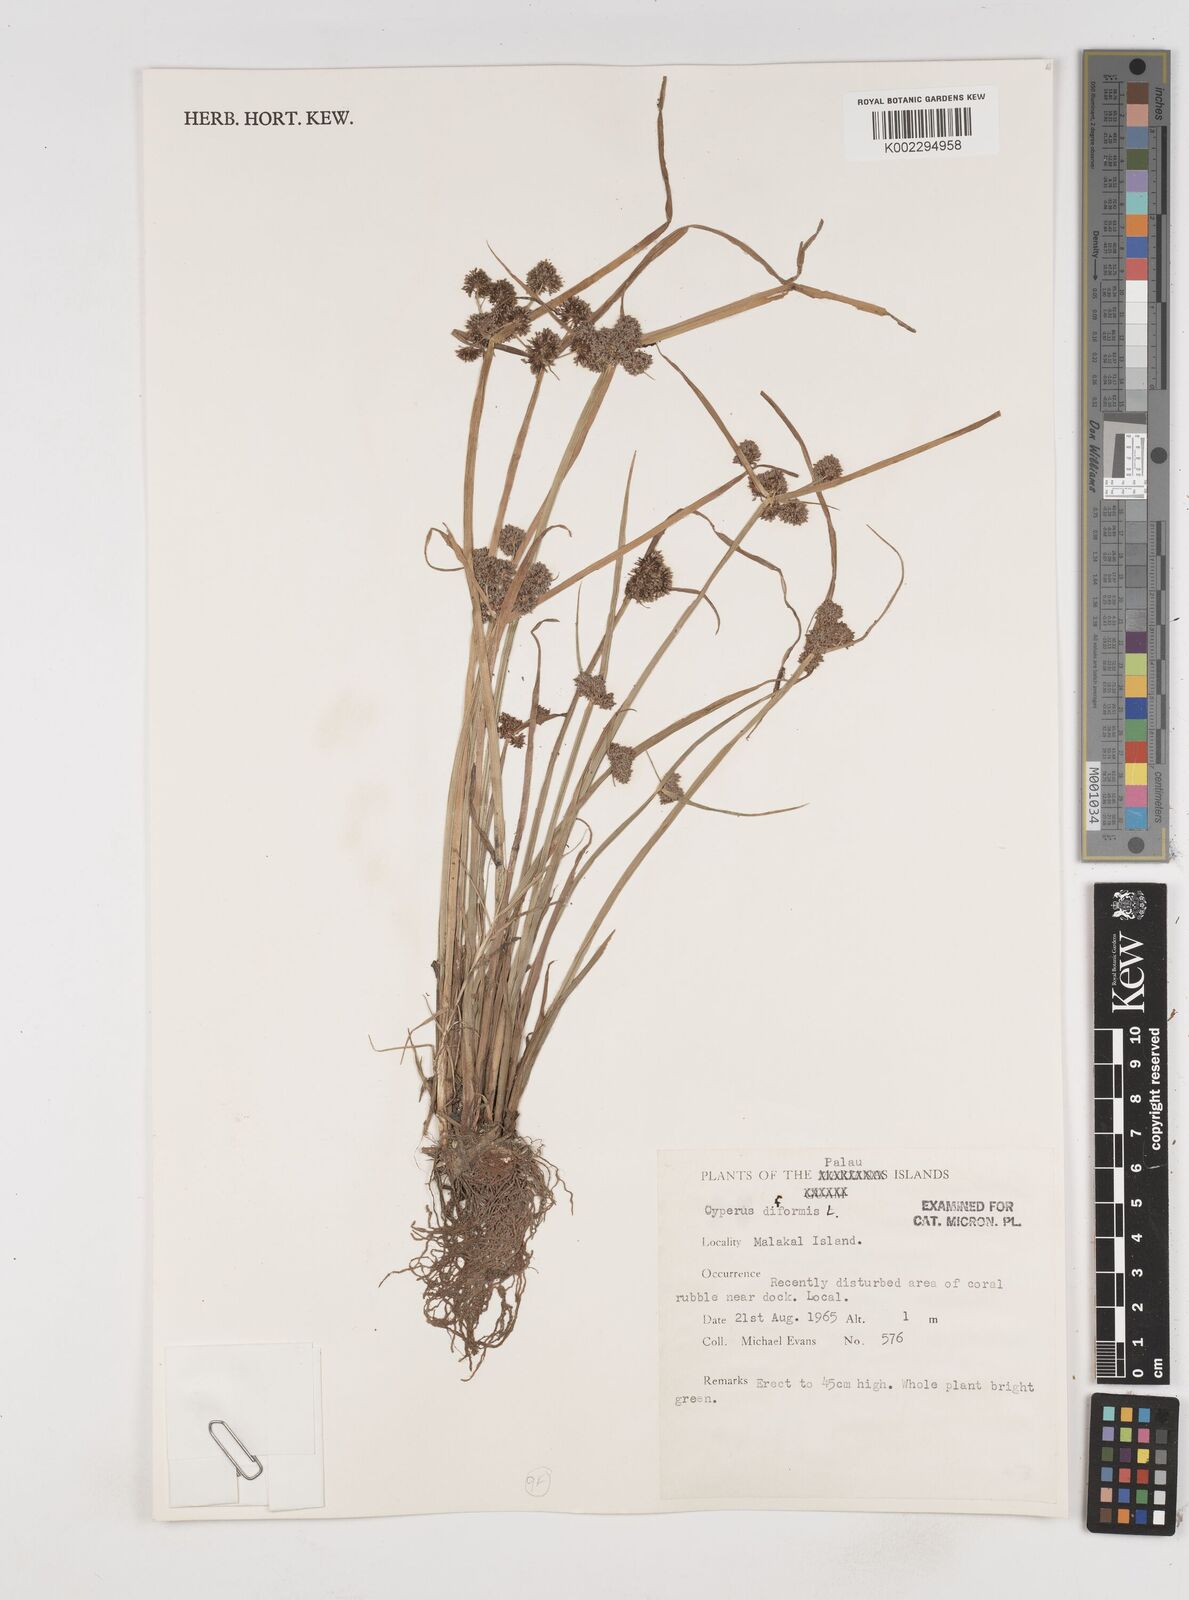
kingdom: Plantae
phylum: Tracheophyta
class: Liliopsida
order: Poales
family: Cyperaceae
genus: Cyperus
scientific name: Cyperus difformis
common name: Variable flatsedge
